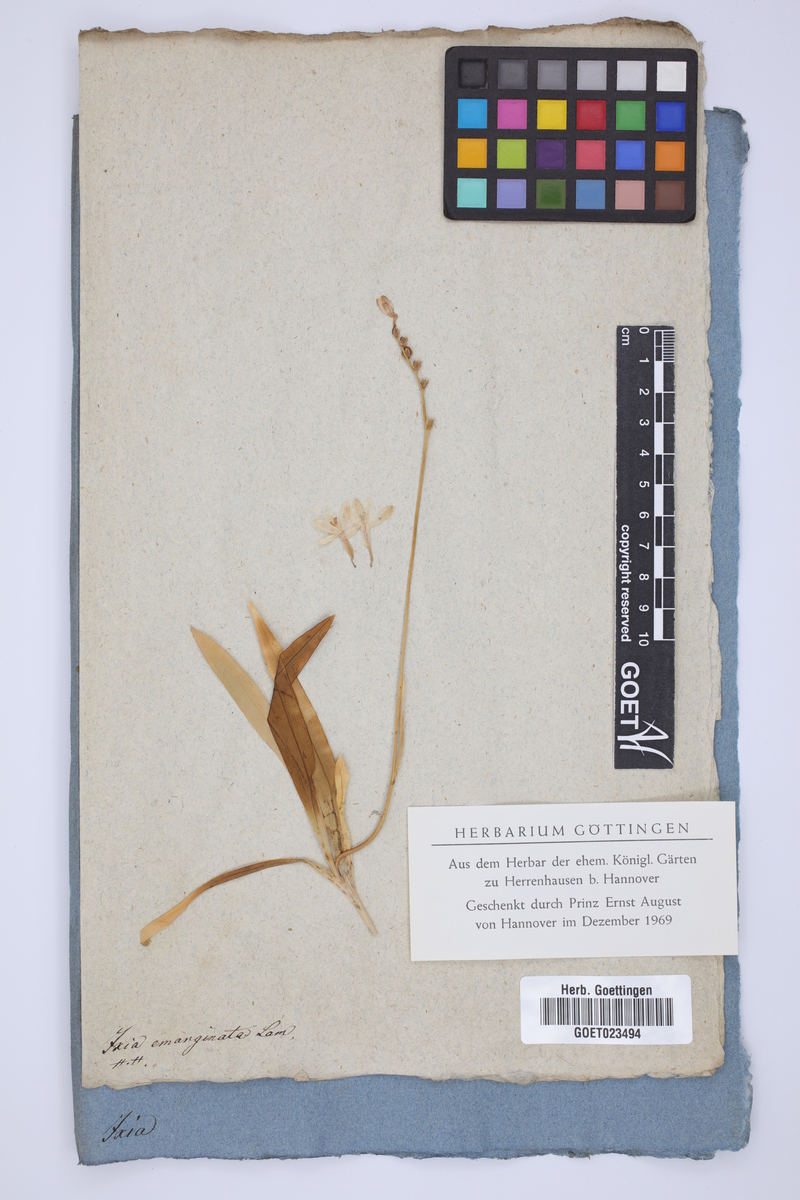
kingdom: Plantae
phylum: Tracheophyta
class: Liliopsida
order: Asparagales
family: Iridaceae
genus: Hesperantha
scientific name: Hesperantha spicata
